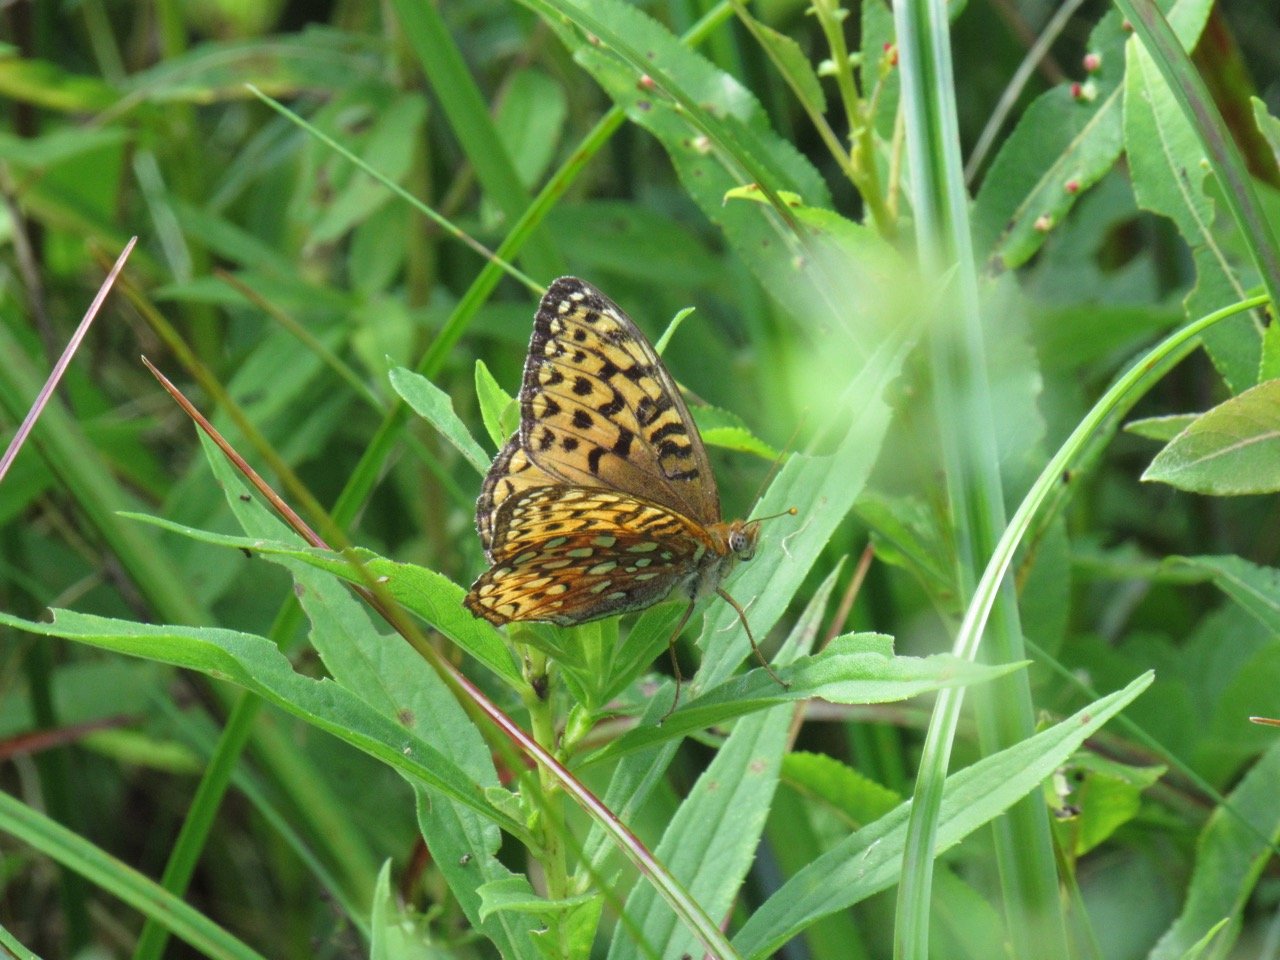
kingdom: Animalia
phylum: Arthropoda
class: Insecta
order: Lepidoptera
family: Nymphalidae
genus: Speyeria
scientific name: Speyeria atlantis
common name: Atlantis Fritillary
